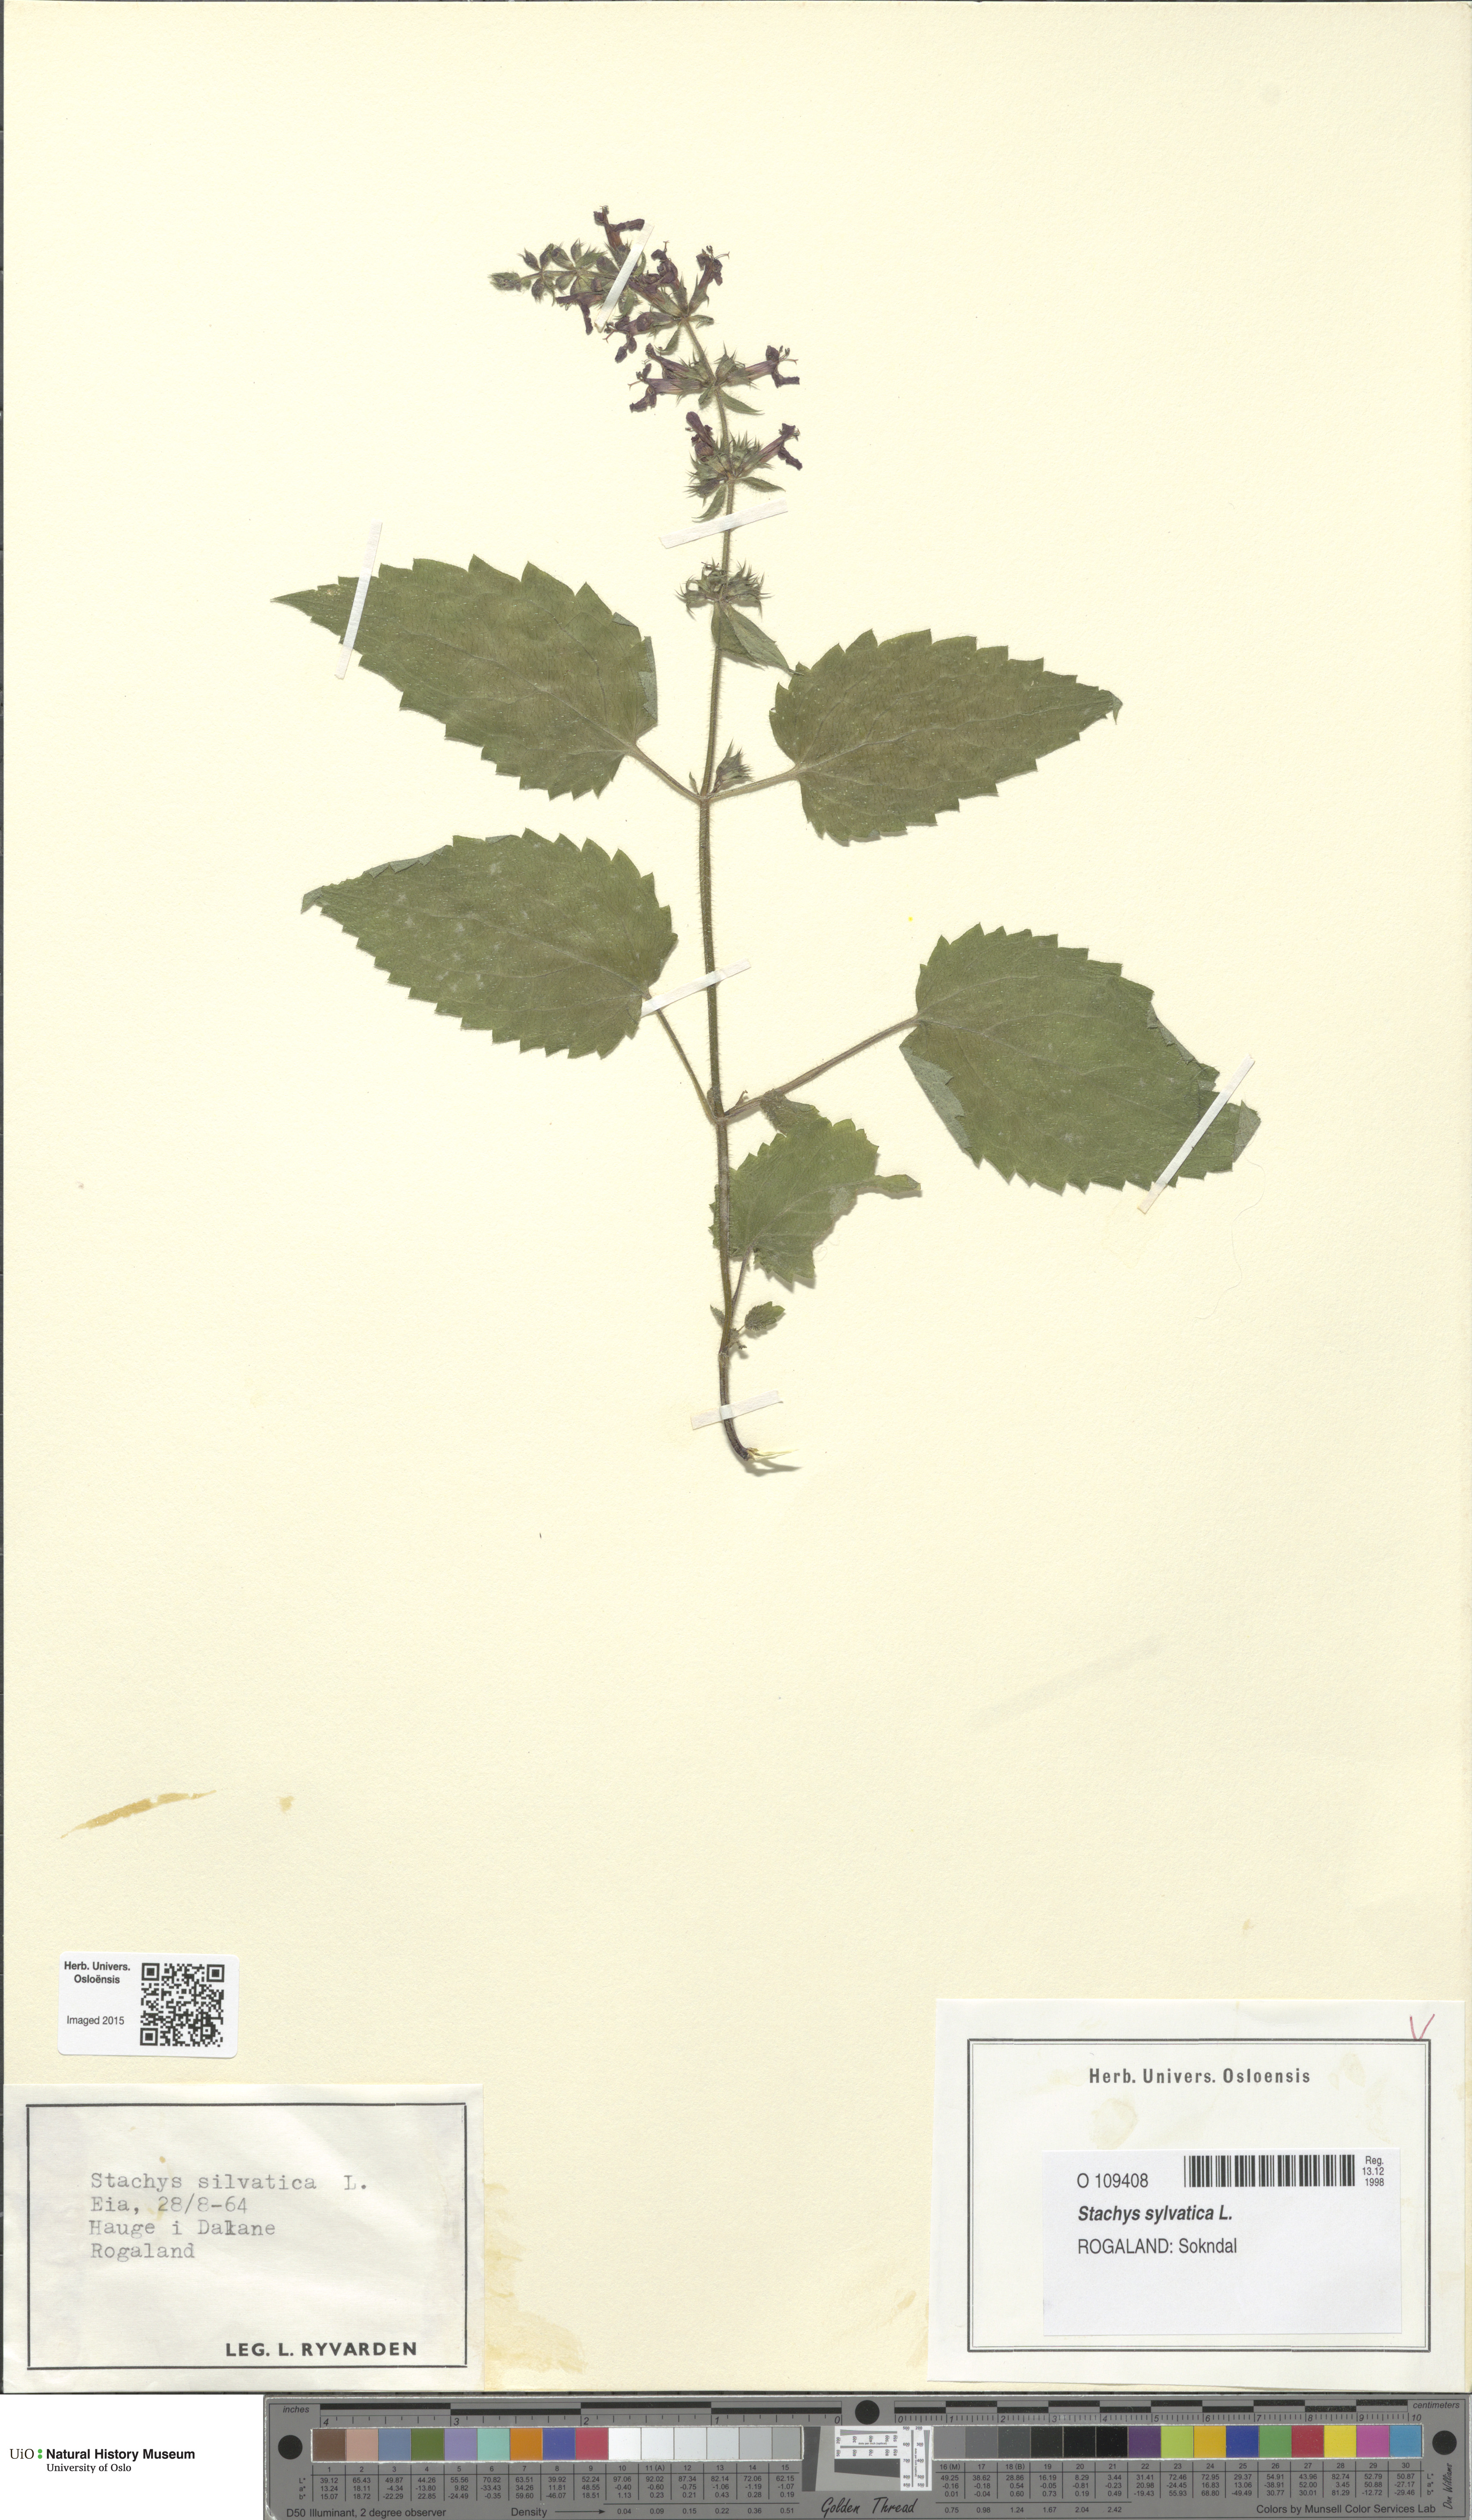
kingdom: Plantae
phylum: Tracheophyta
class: Magnoliopsida
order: Lamiales
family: Lamiaceae
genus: Stachys
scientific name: Stachys sylvatica
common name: Hedge woundwort
